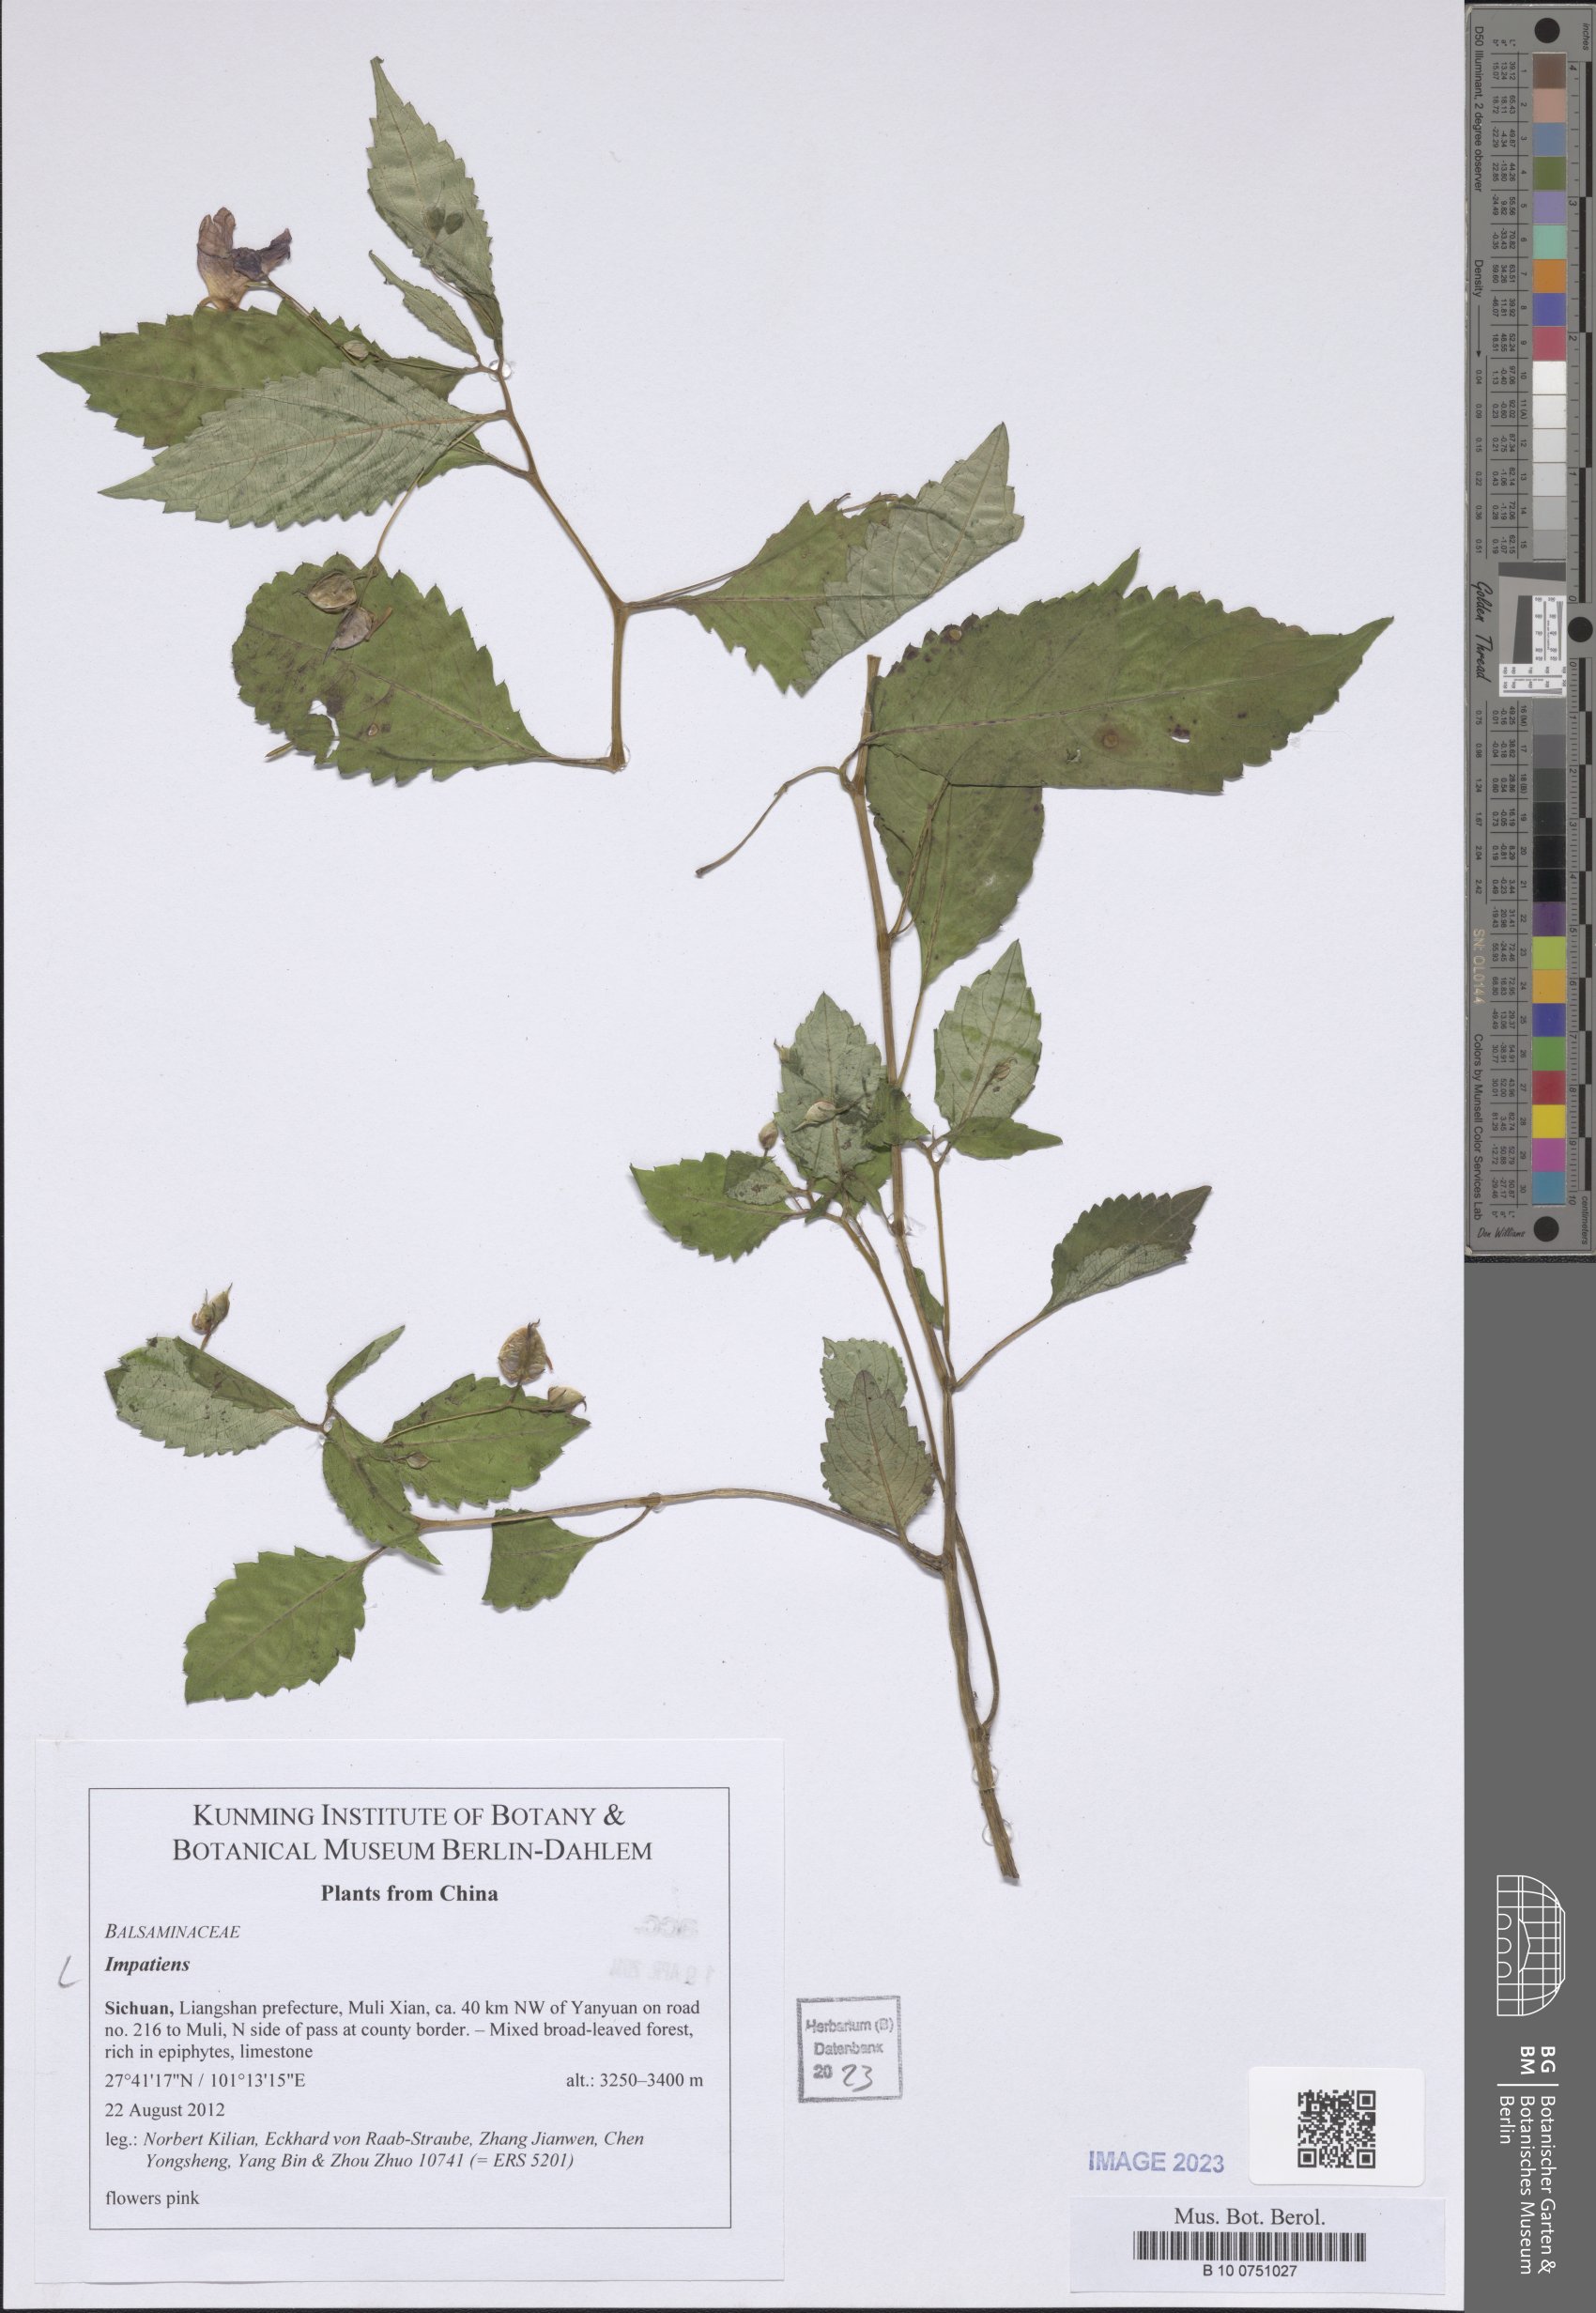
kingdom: Plantae
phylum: Tracheophyta
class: Magnoliopsida
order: Ericales
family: Balsaminaceae
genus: Impatiens
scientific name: Impatiens
